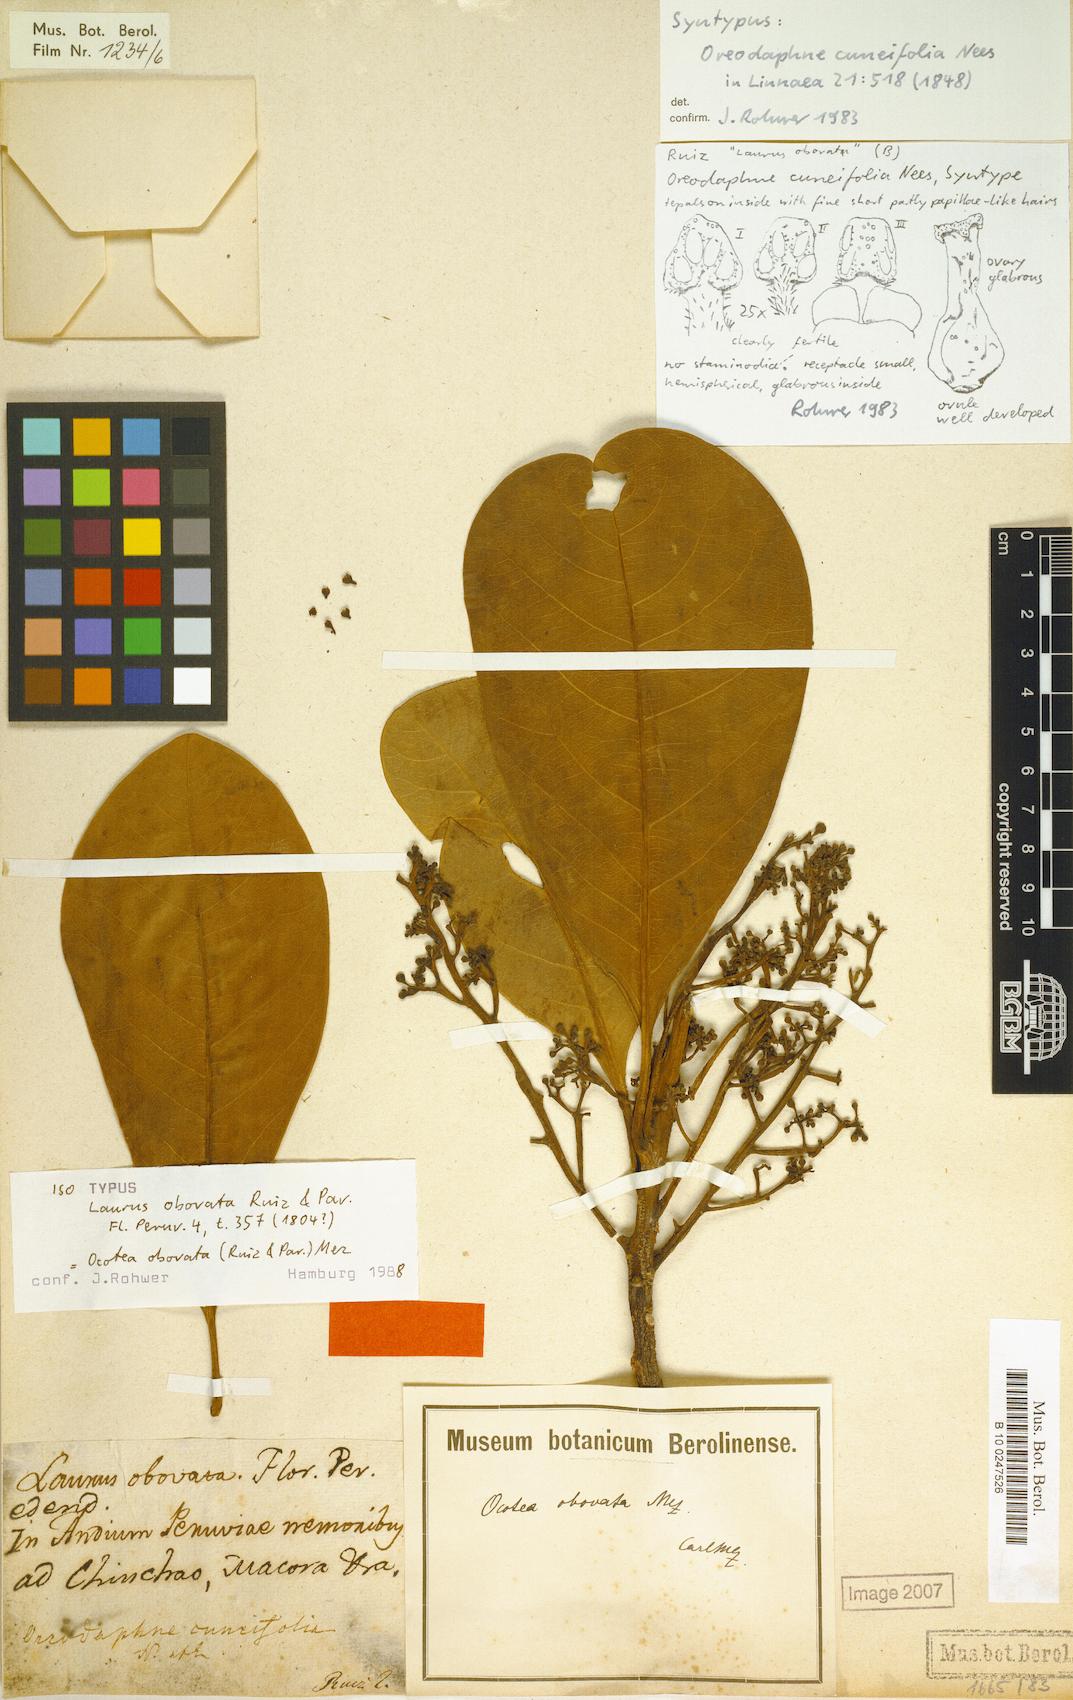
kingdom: Plantae
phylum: Tracheophyta
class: Magnoliopsida
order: Laurales
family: Lauraceae
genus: Ocotea
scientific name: Ocotea obovata
